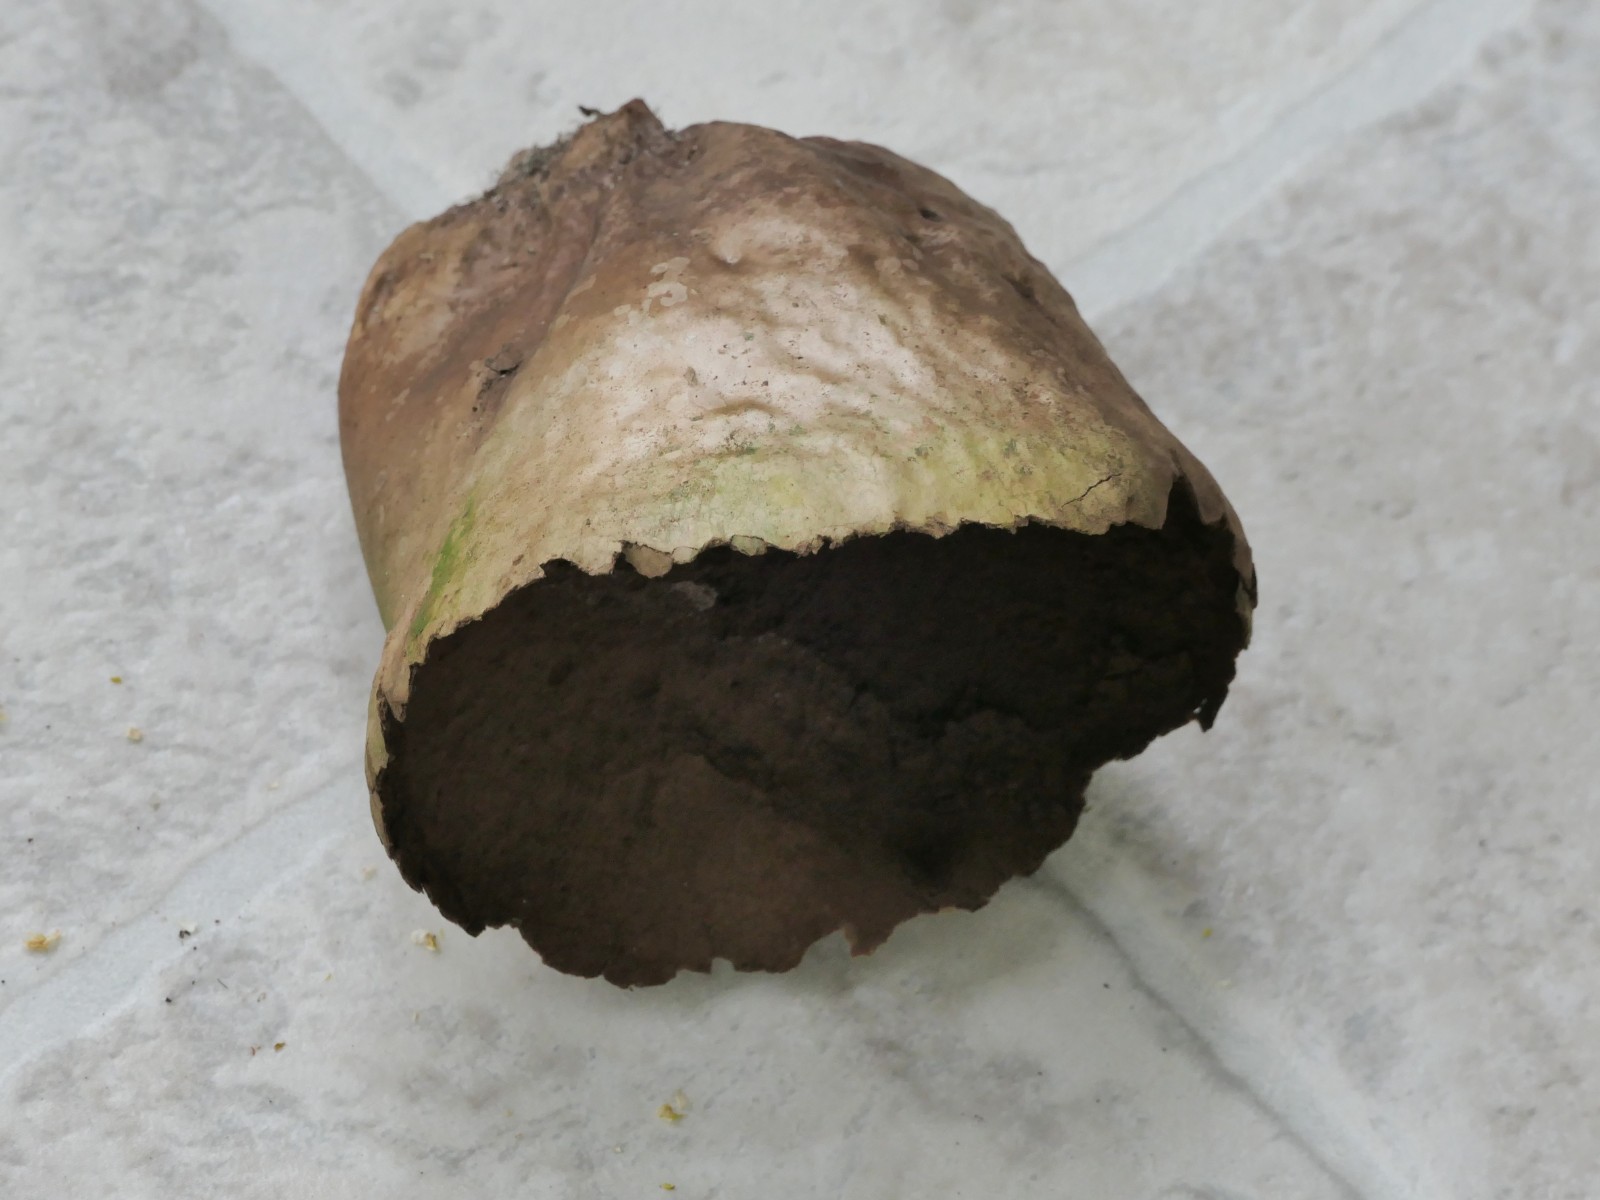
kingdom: Fungi
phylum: Basidiomycota
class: Agaricomycetes
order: Agaricales
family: Lycoperdaceae
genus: Bovistella
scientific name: Bovistella utriformis
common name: skællet støvbold
